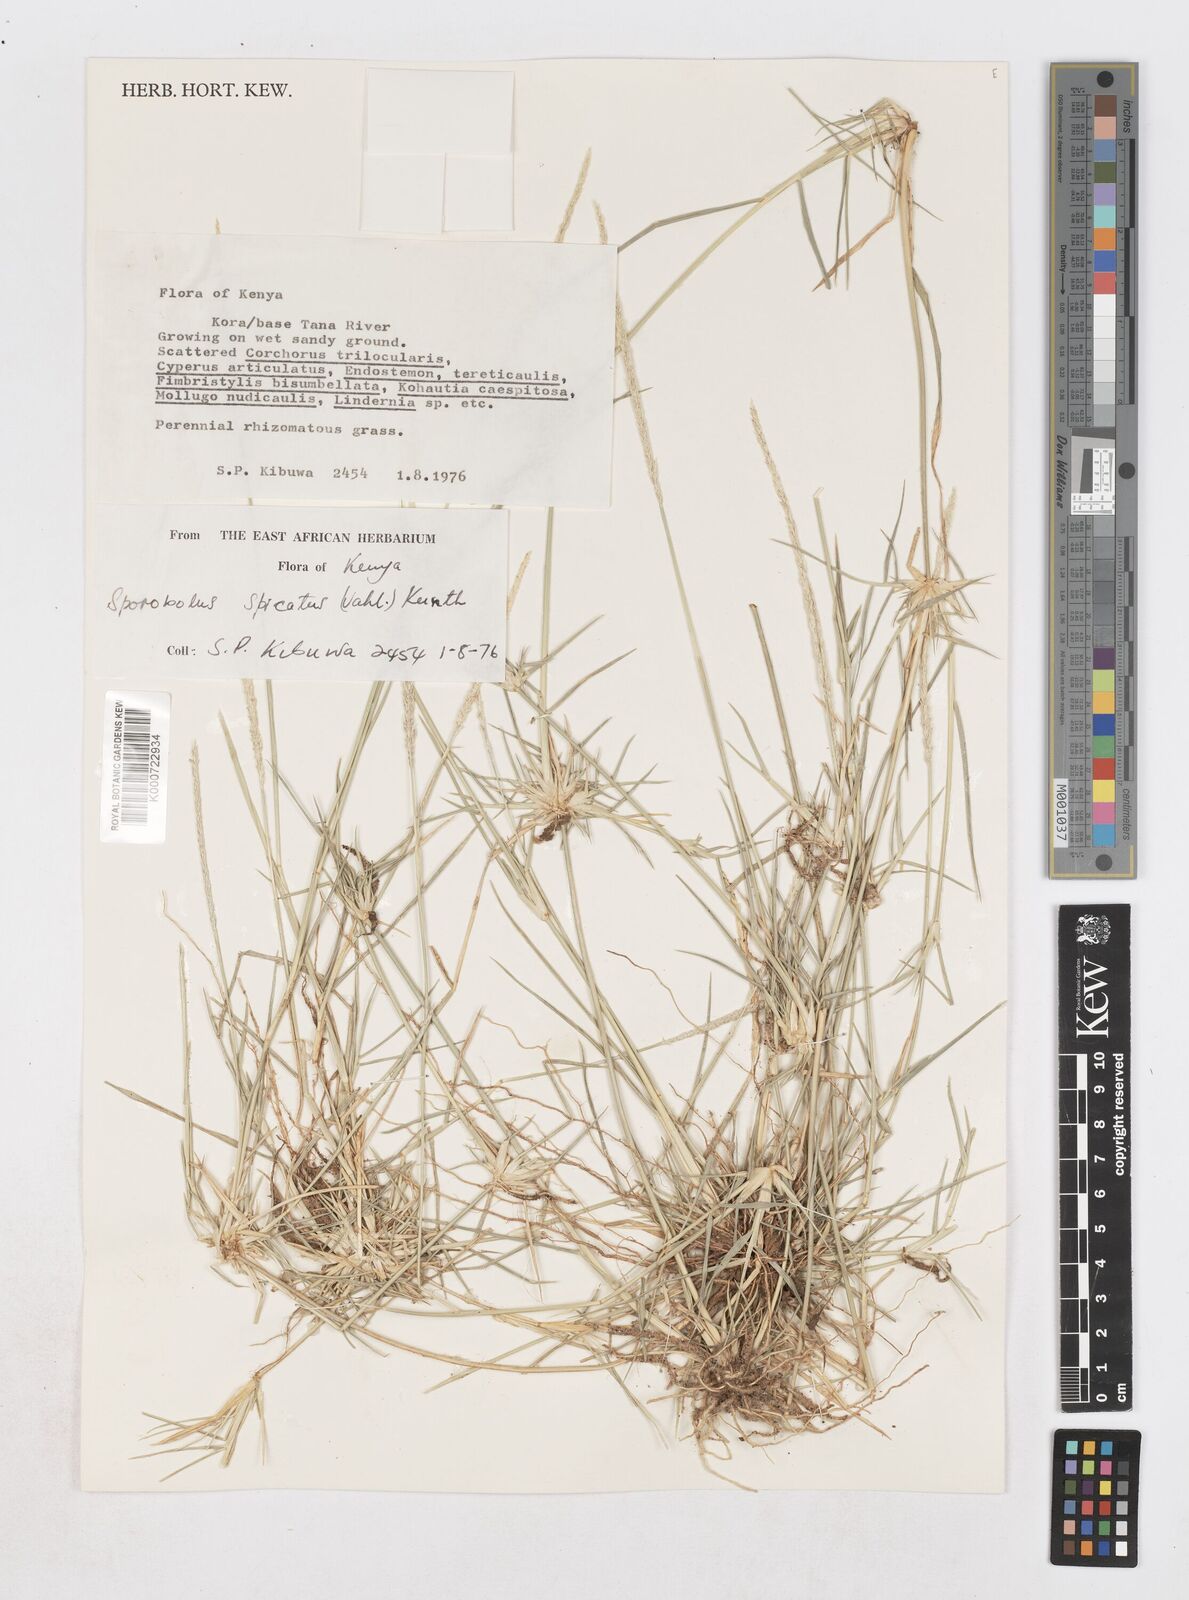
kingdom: Plantae
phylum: Tracheophyta
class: Liliopsida
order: Poales
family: Poaceae
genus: Sporobolus
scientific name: Sporobolus spicatus
